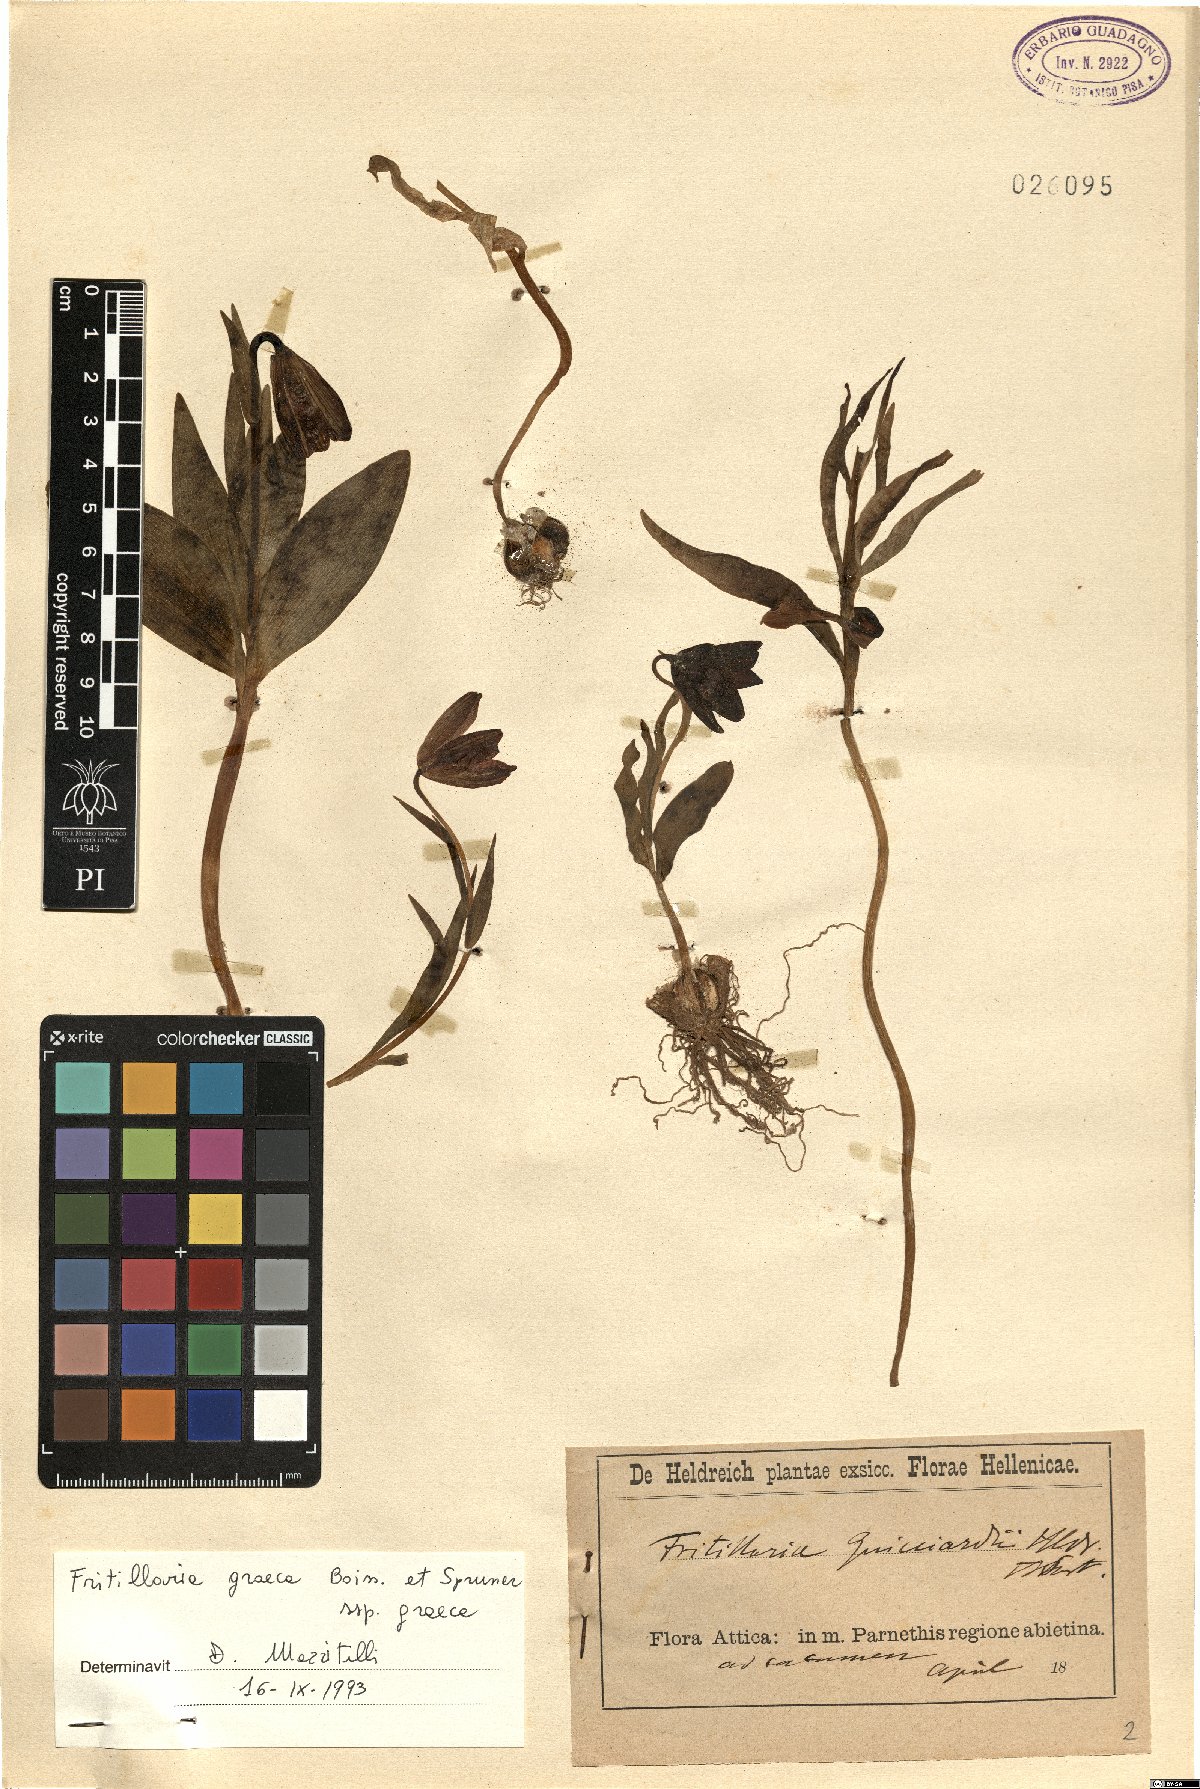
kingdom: Plantae
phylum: Tracheophyta
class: Liliopsida
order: Liliales
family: Liliaceae
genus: Fritillaria
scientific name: Fritillaria graeca
